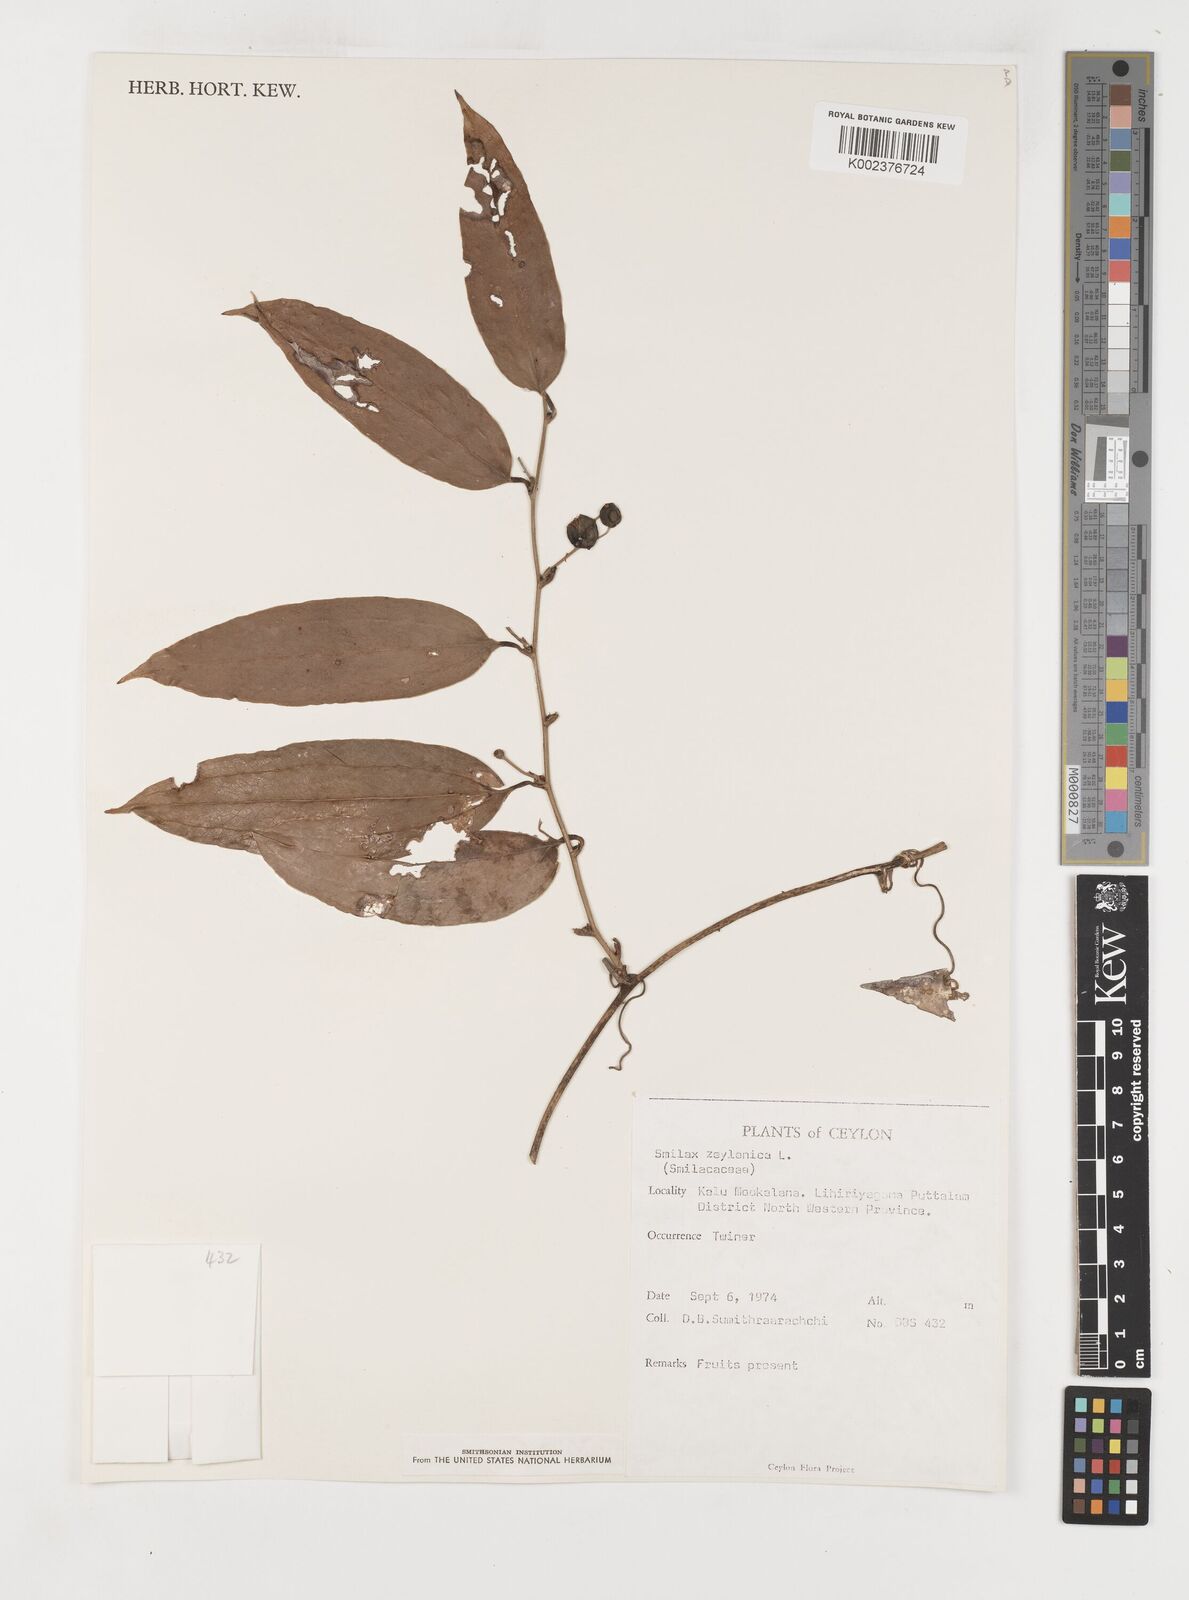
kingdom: Plantae
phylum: Tracheophyta
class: Liliopsida
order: Liliales
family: Smilacaceae
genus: Smilax
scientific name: Smilax zeylanica
